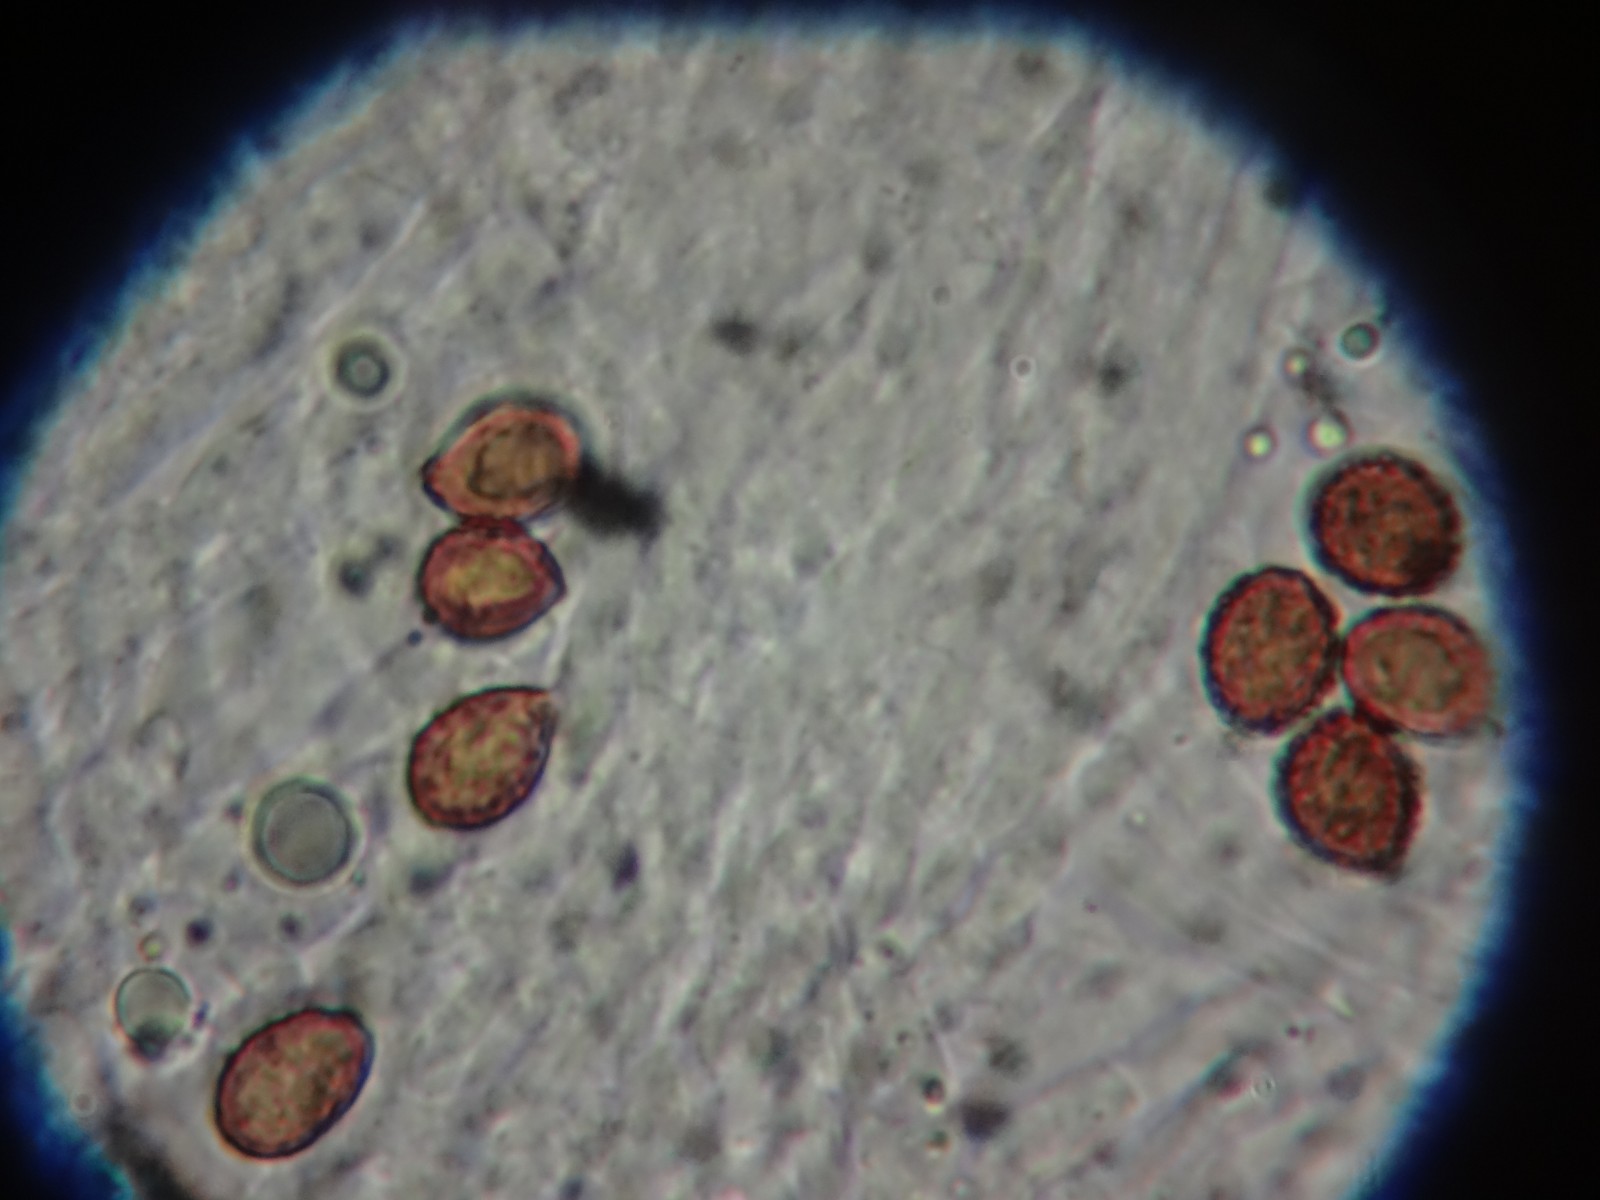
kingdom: Fungi
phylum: Basidiomycota
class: Agaricomycetes
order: Agaricales
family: Cortinariaceae
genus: Phlegmacium
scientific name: Phlegmacium caesiocortinatum
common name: rundsporet slørhat
